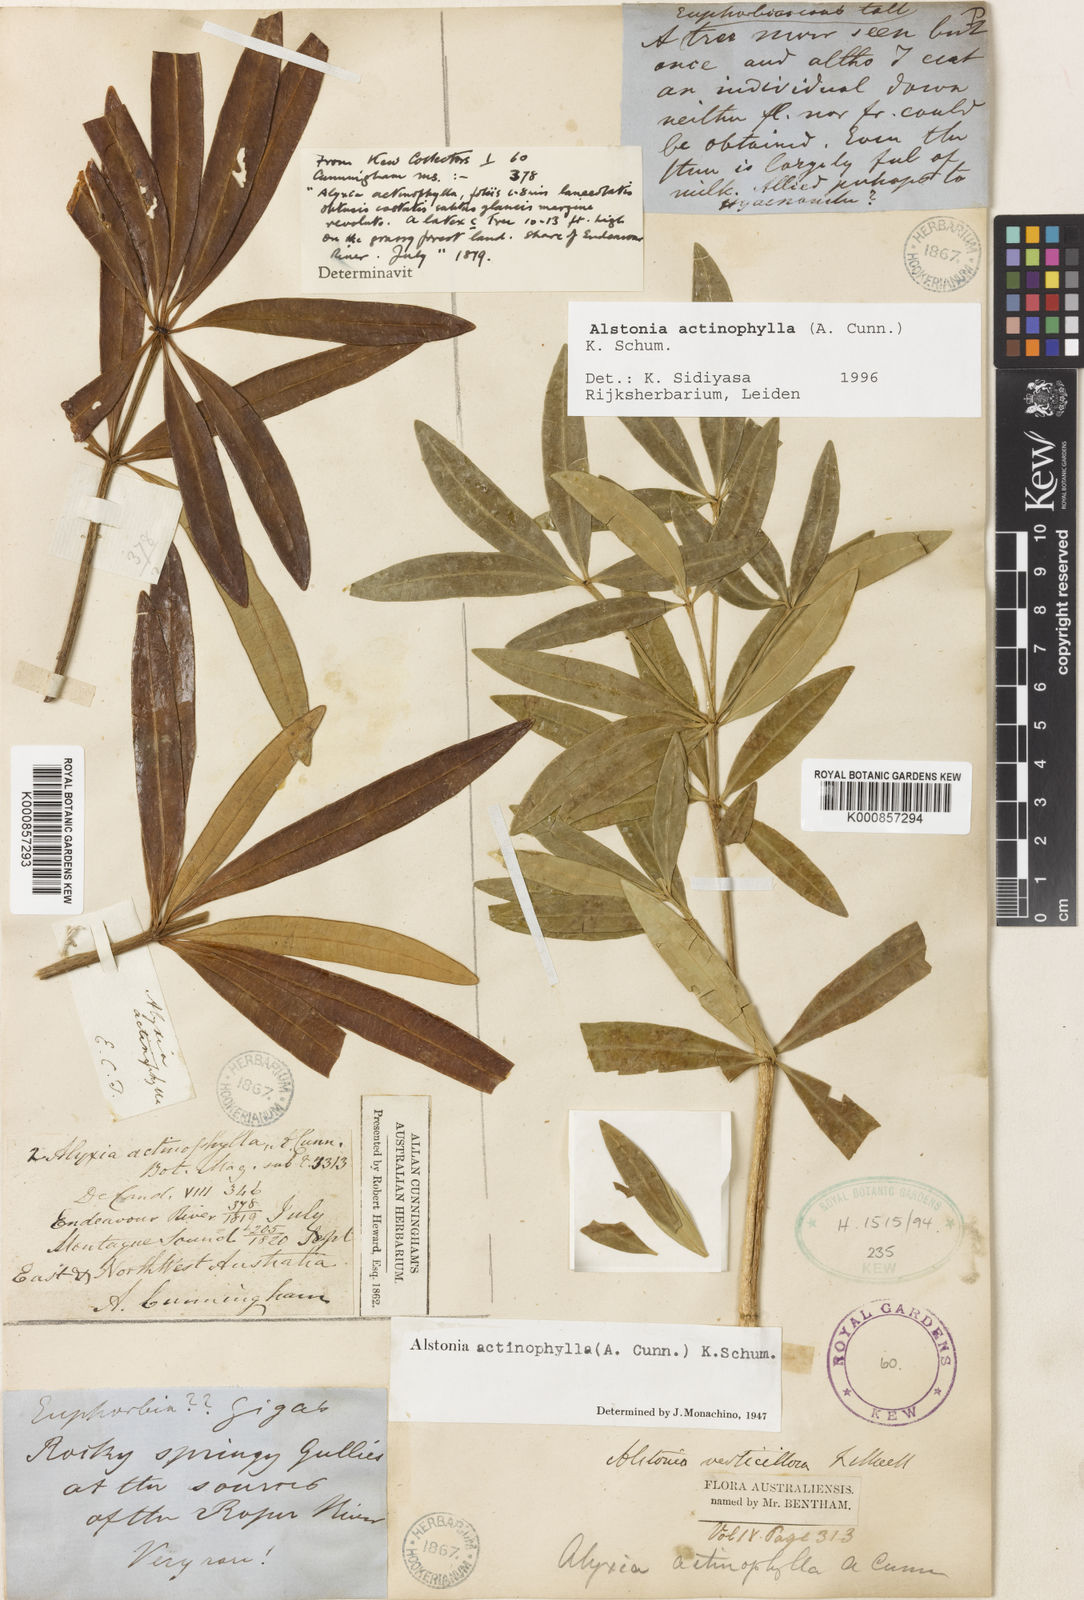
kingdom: Plantae
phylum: Tracheophyta
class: Magnoliopsida
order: Gentianales
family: Apocynaceae
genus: Alstonia
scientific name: Alstonia actinophylla
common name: Milkwood
